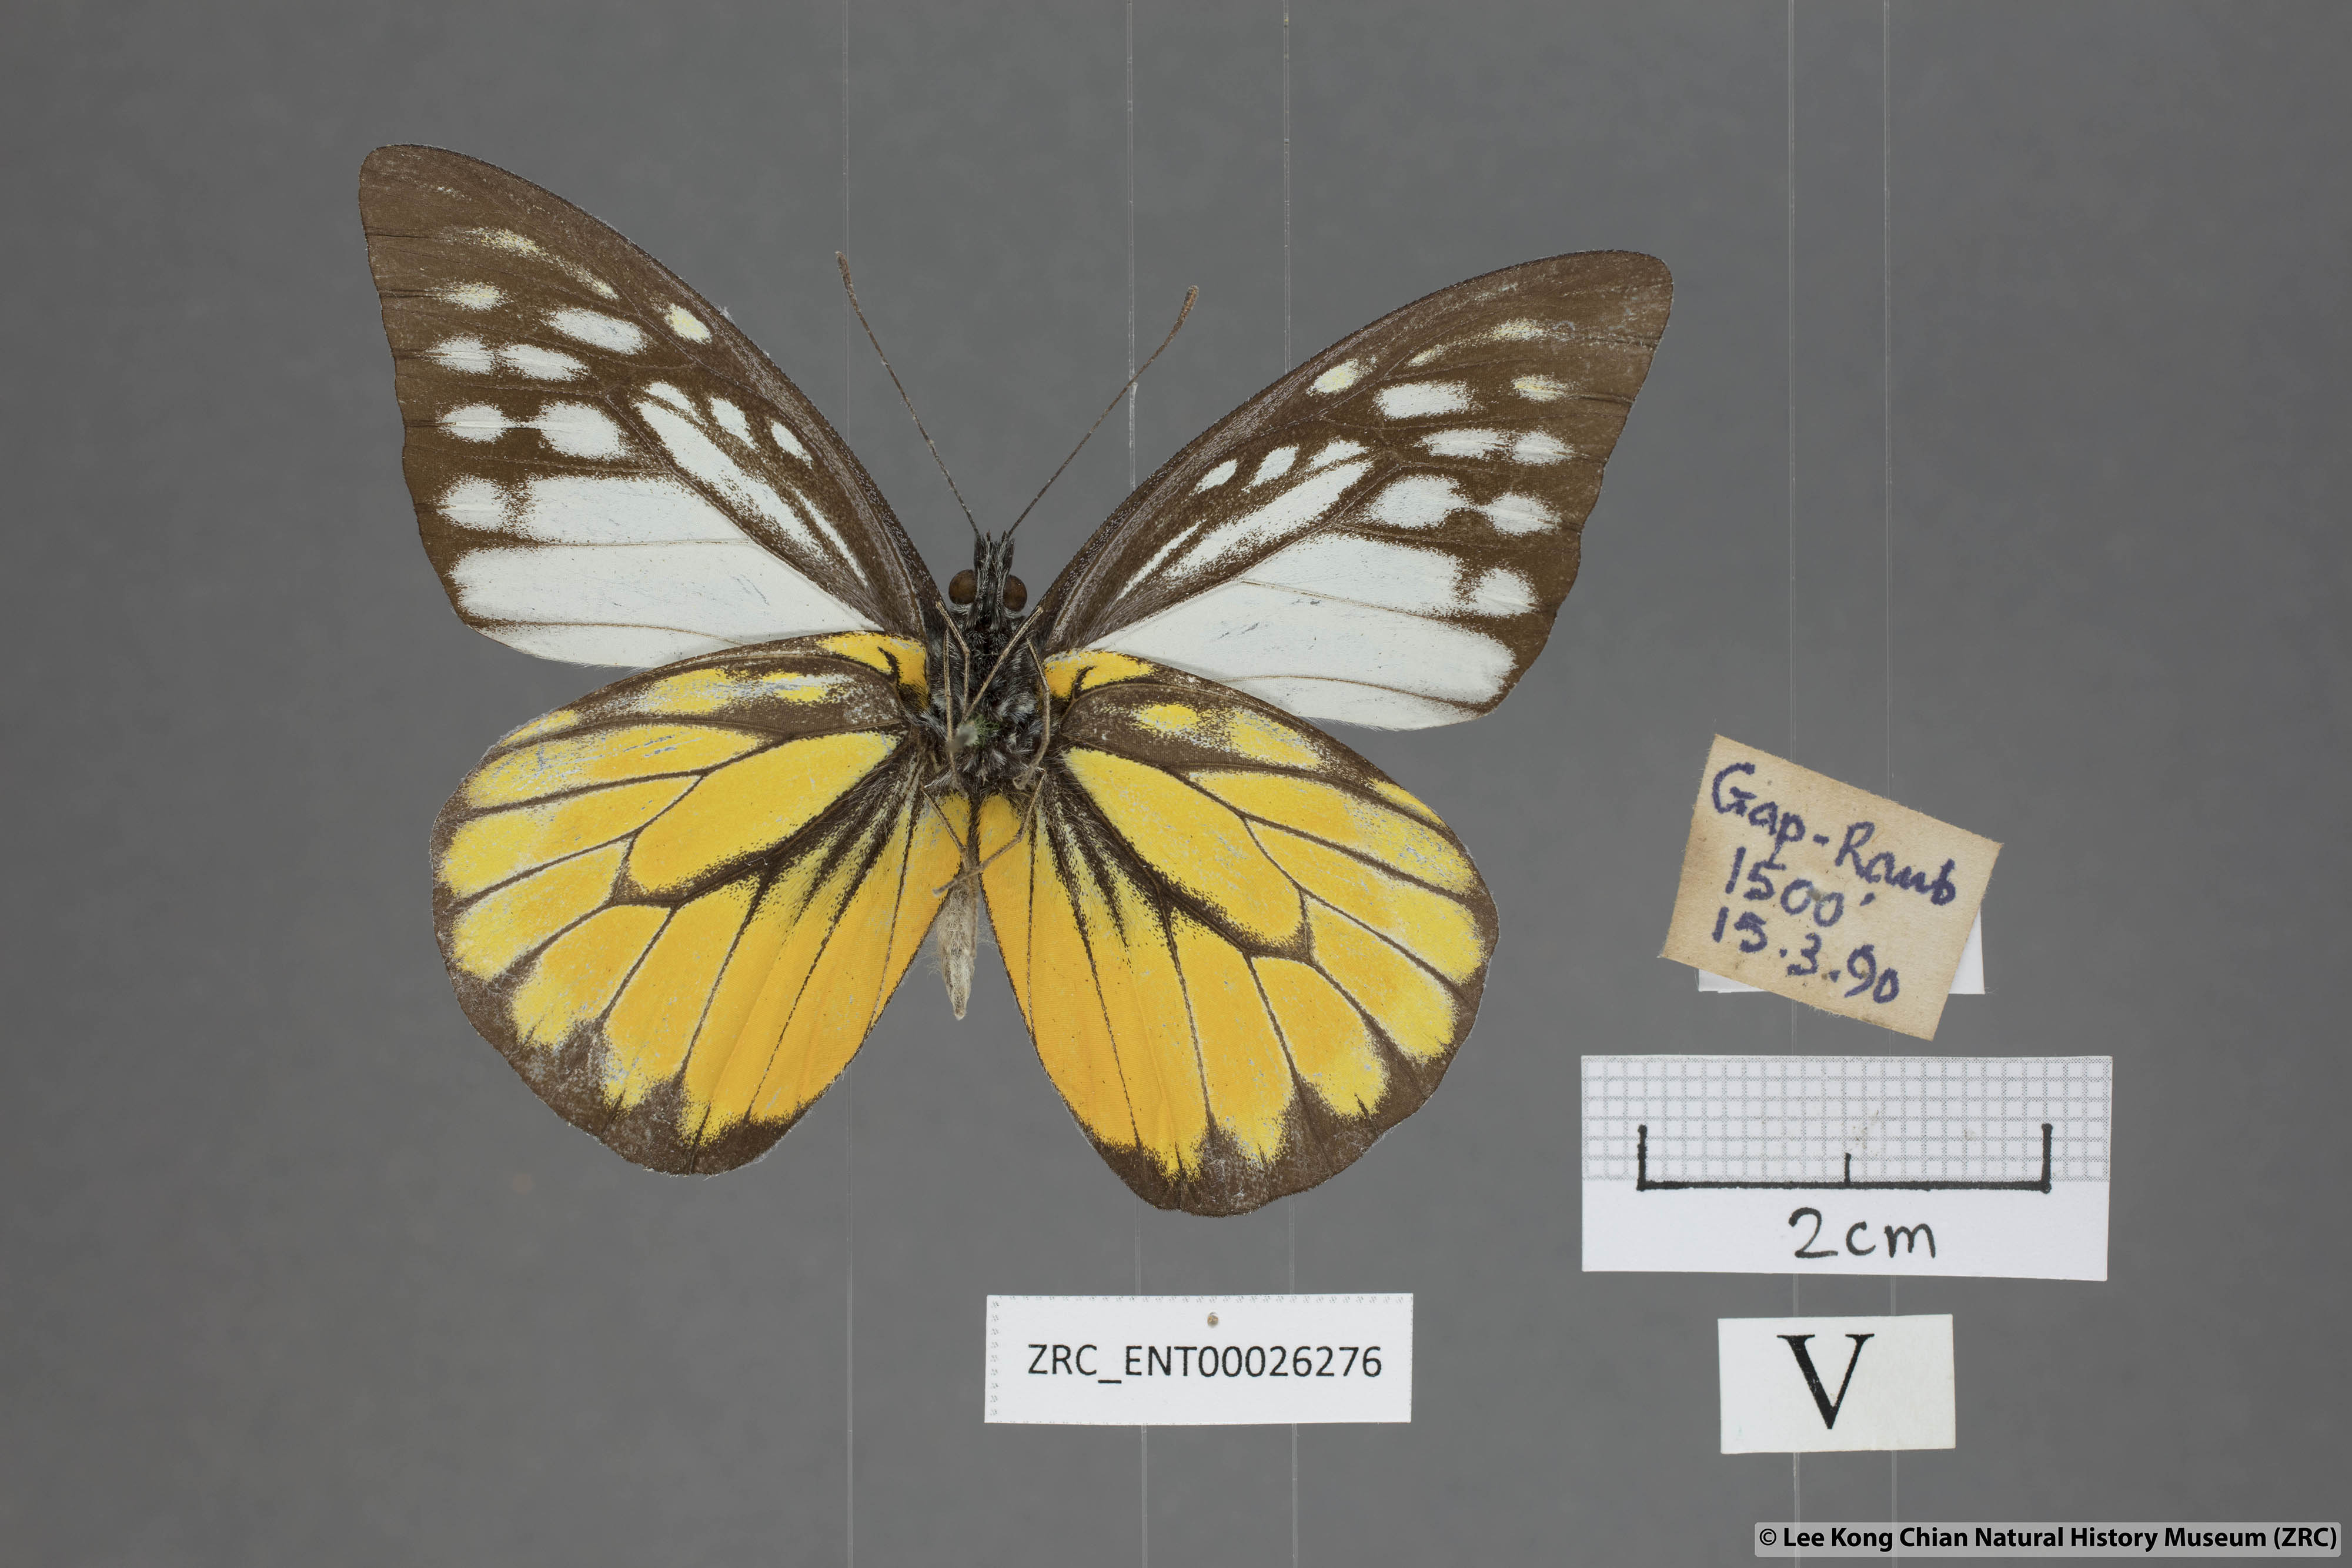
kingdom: Animalia
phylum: Arthropoda
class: Insecta
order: Lepidoptera
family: Pieridae
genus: Prioneris
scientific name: Prioneris thestylis
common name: Spotted sawtooth
